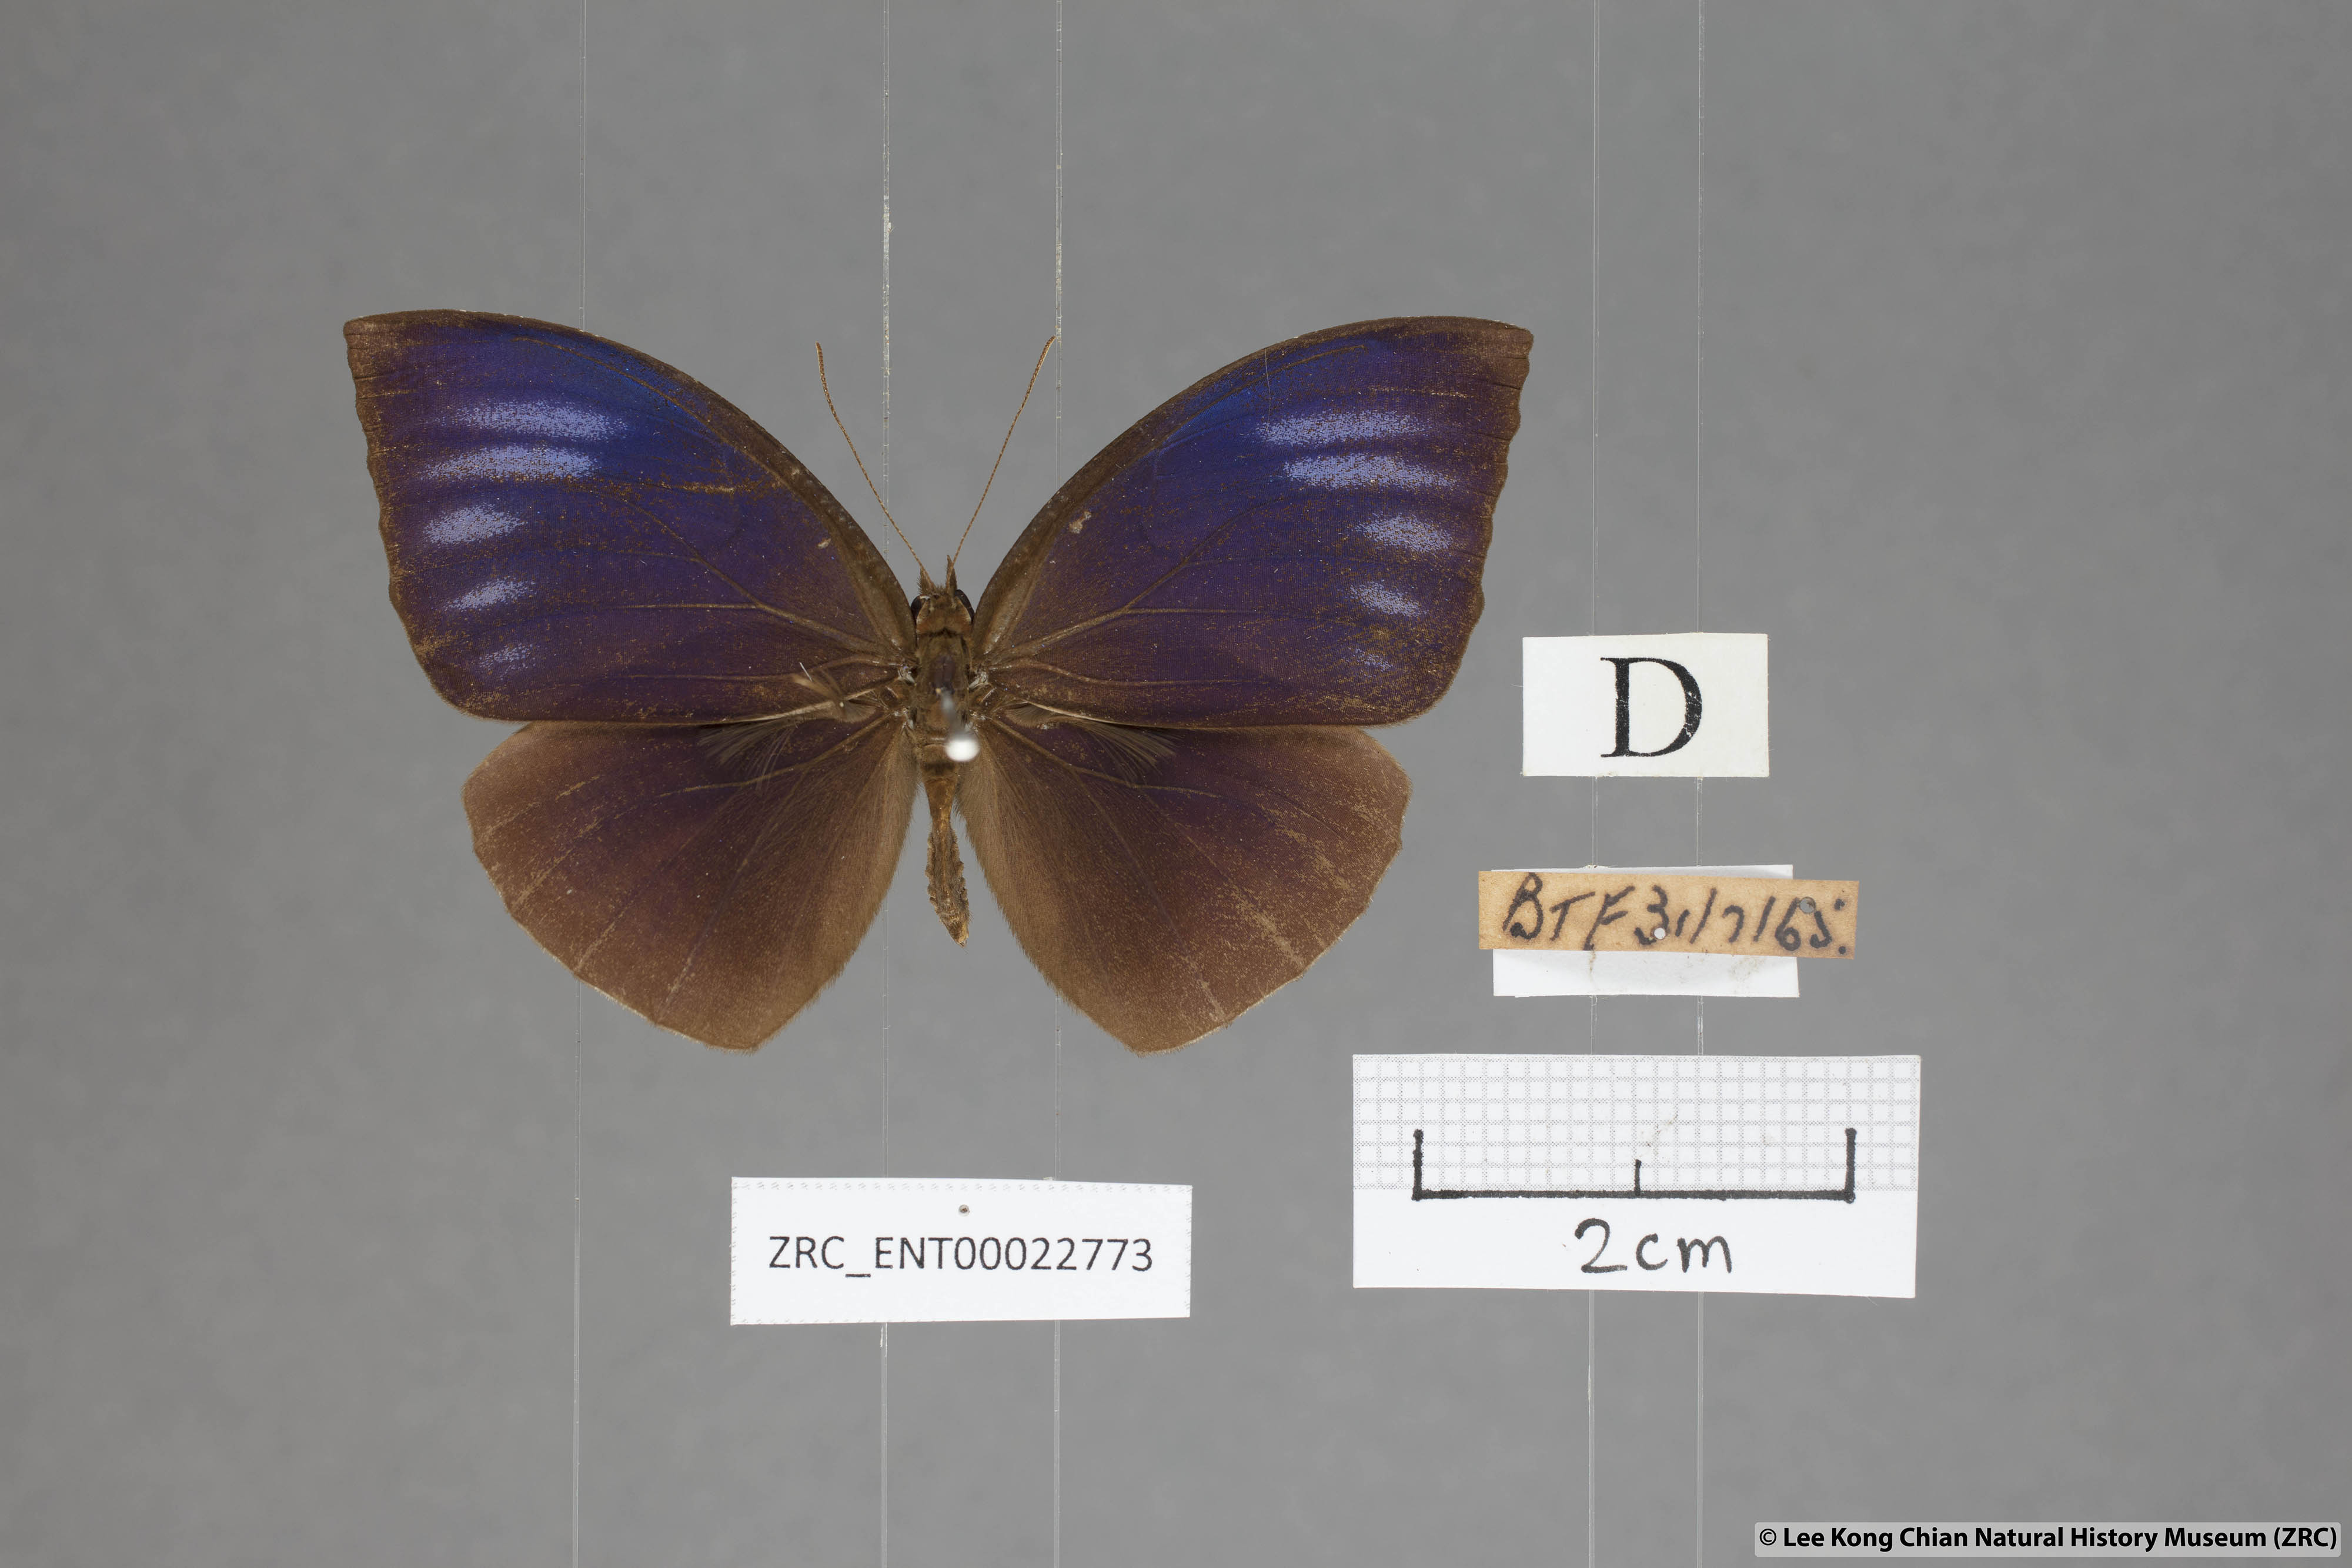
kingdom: Animalia
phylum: Arthropoda
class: Insecta
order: Lepidoptera
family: Nymphalidae
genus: Elymnias
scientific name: Elymnias penanga
